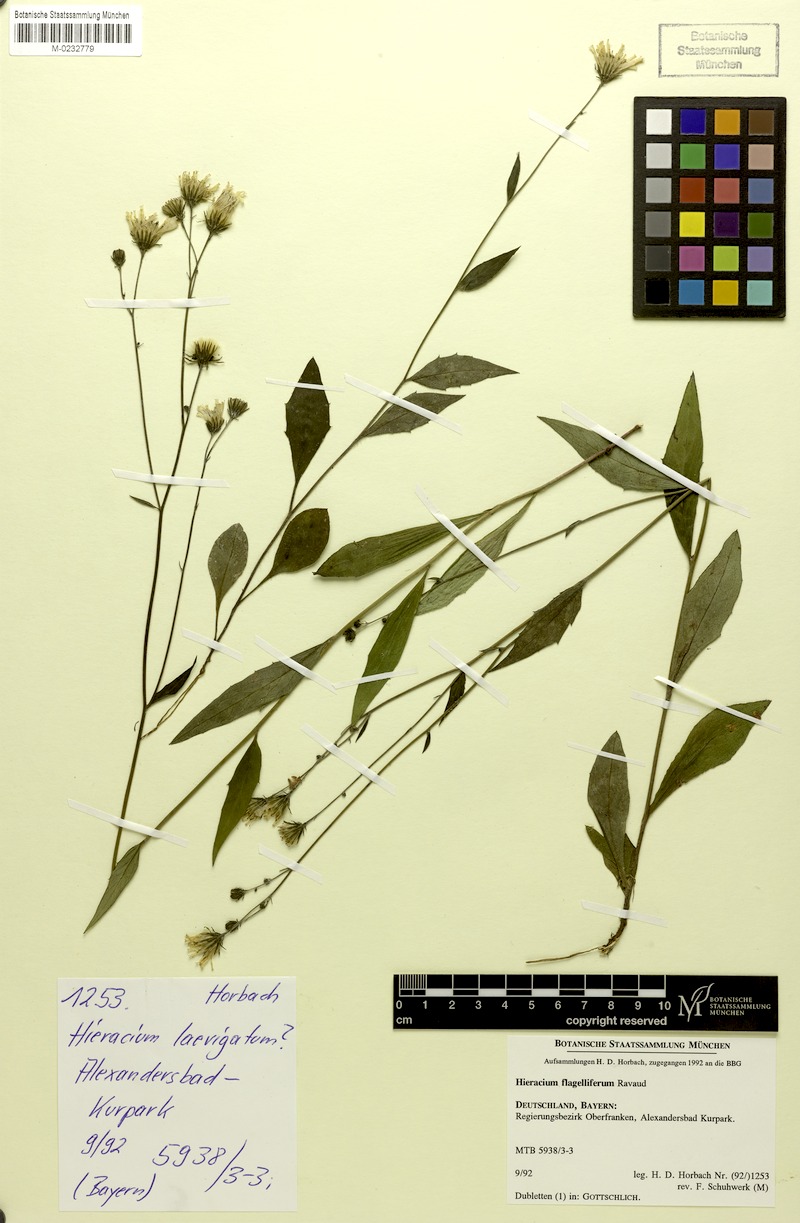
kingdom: Plantae
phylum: Tracheophyta
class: Magnoliopsida
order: Asterales
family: Asteraceae
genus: Hieracium
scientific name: Hieracium flagelliferum
